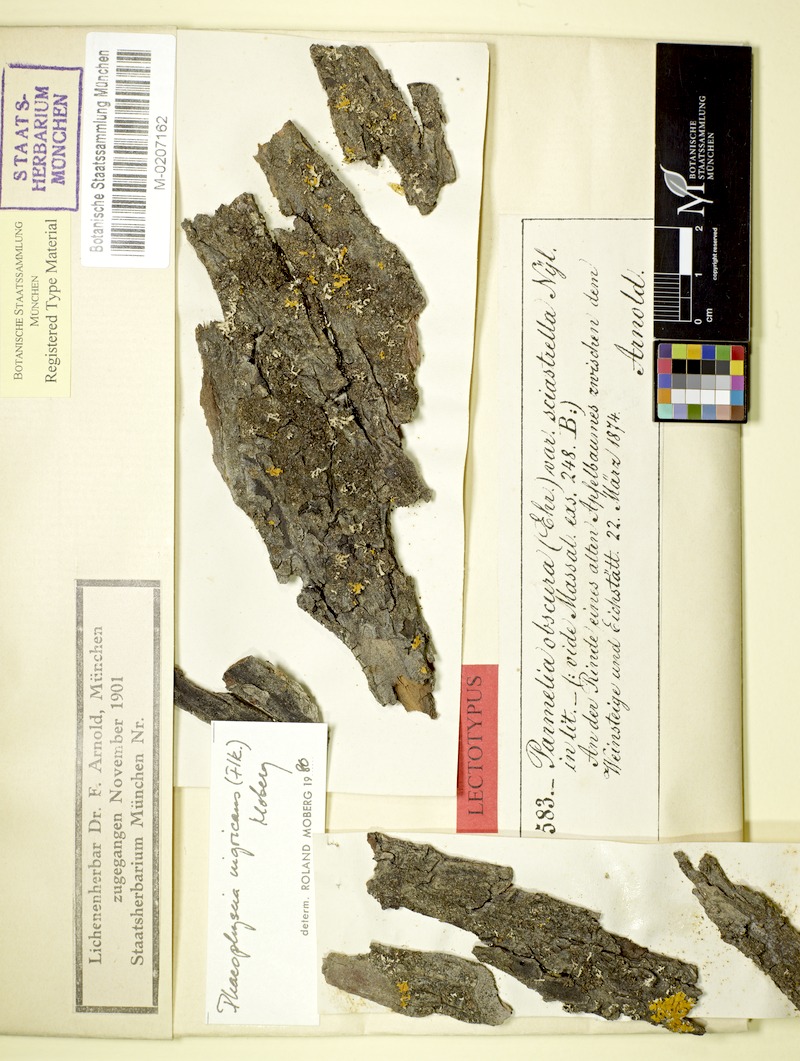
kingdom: Fungi
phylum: Ascomycota
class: Lecanoromycetes
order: Caliciales
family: Physciaceae
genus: Physciella
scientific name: Physciella nigricans
